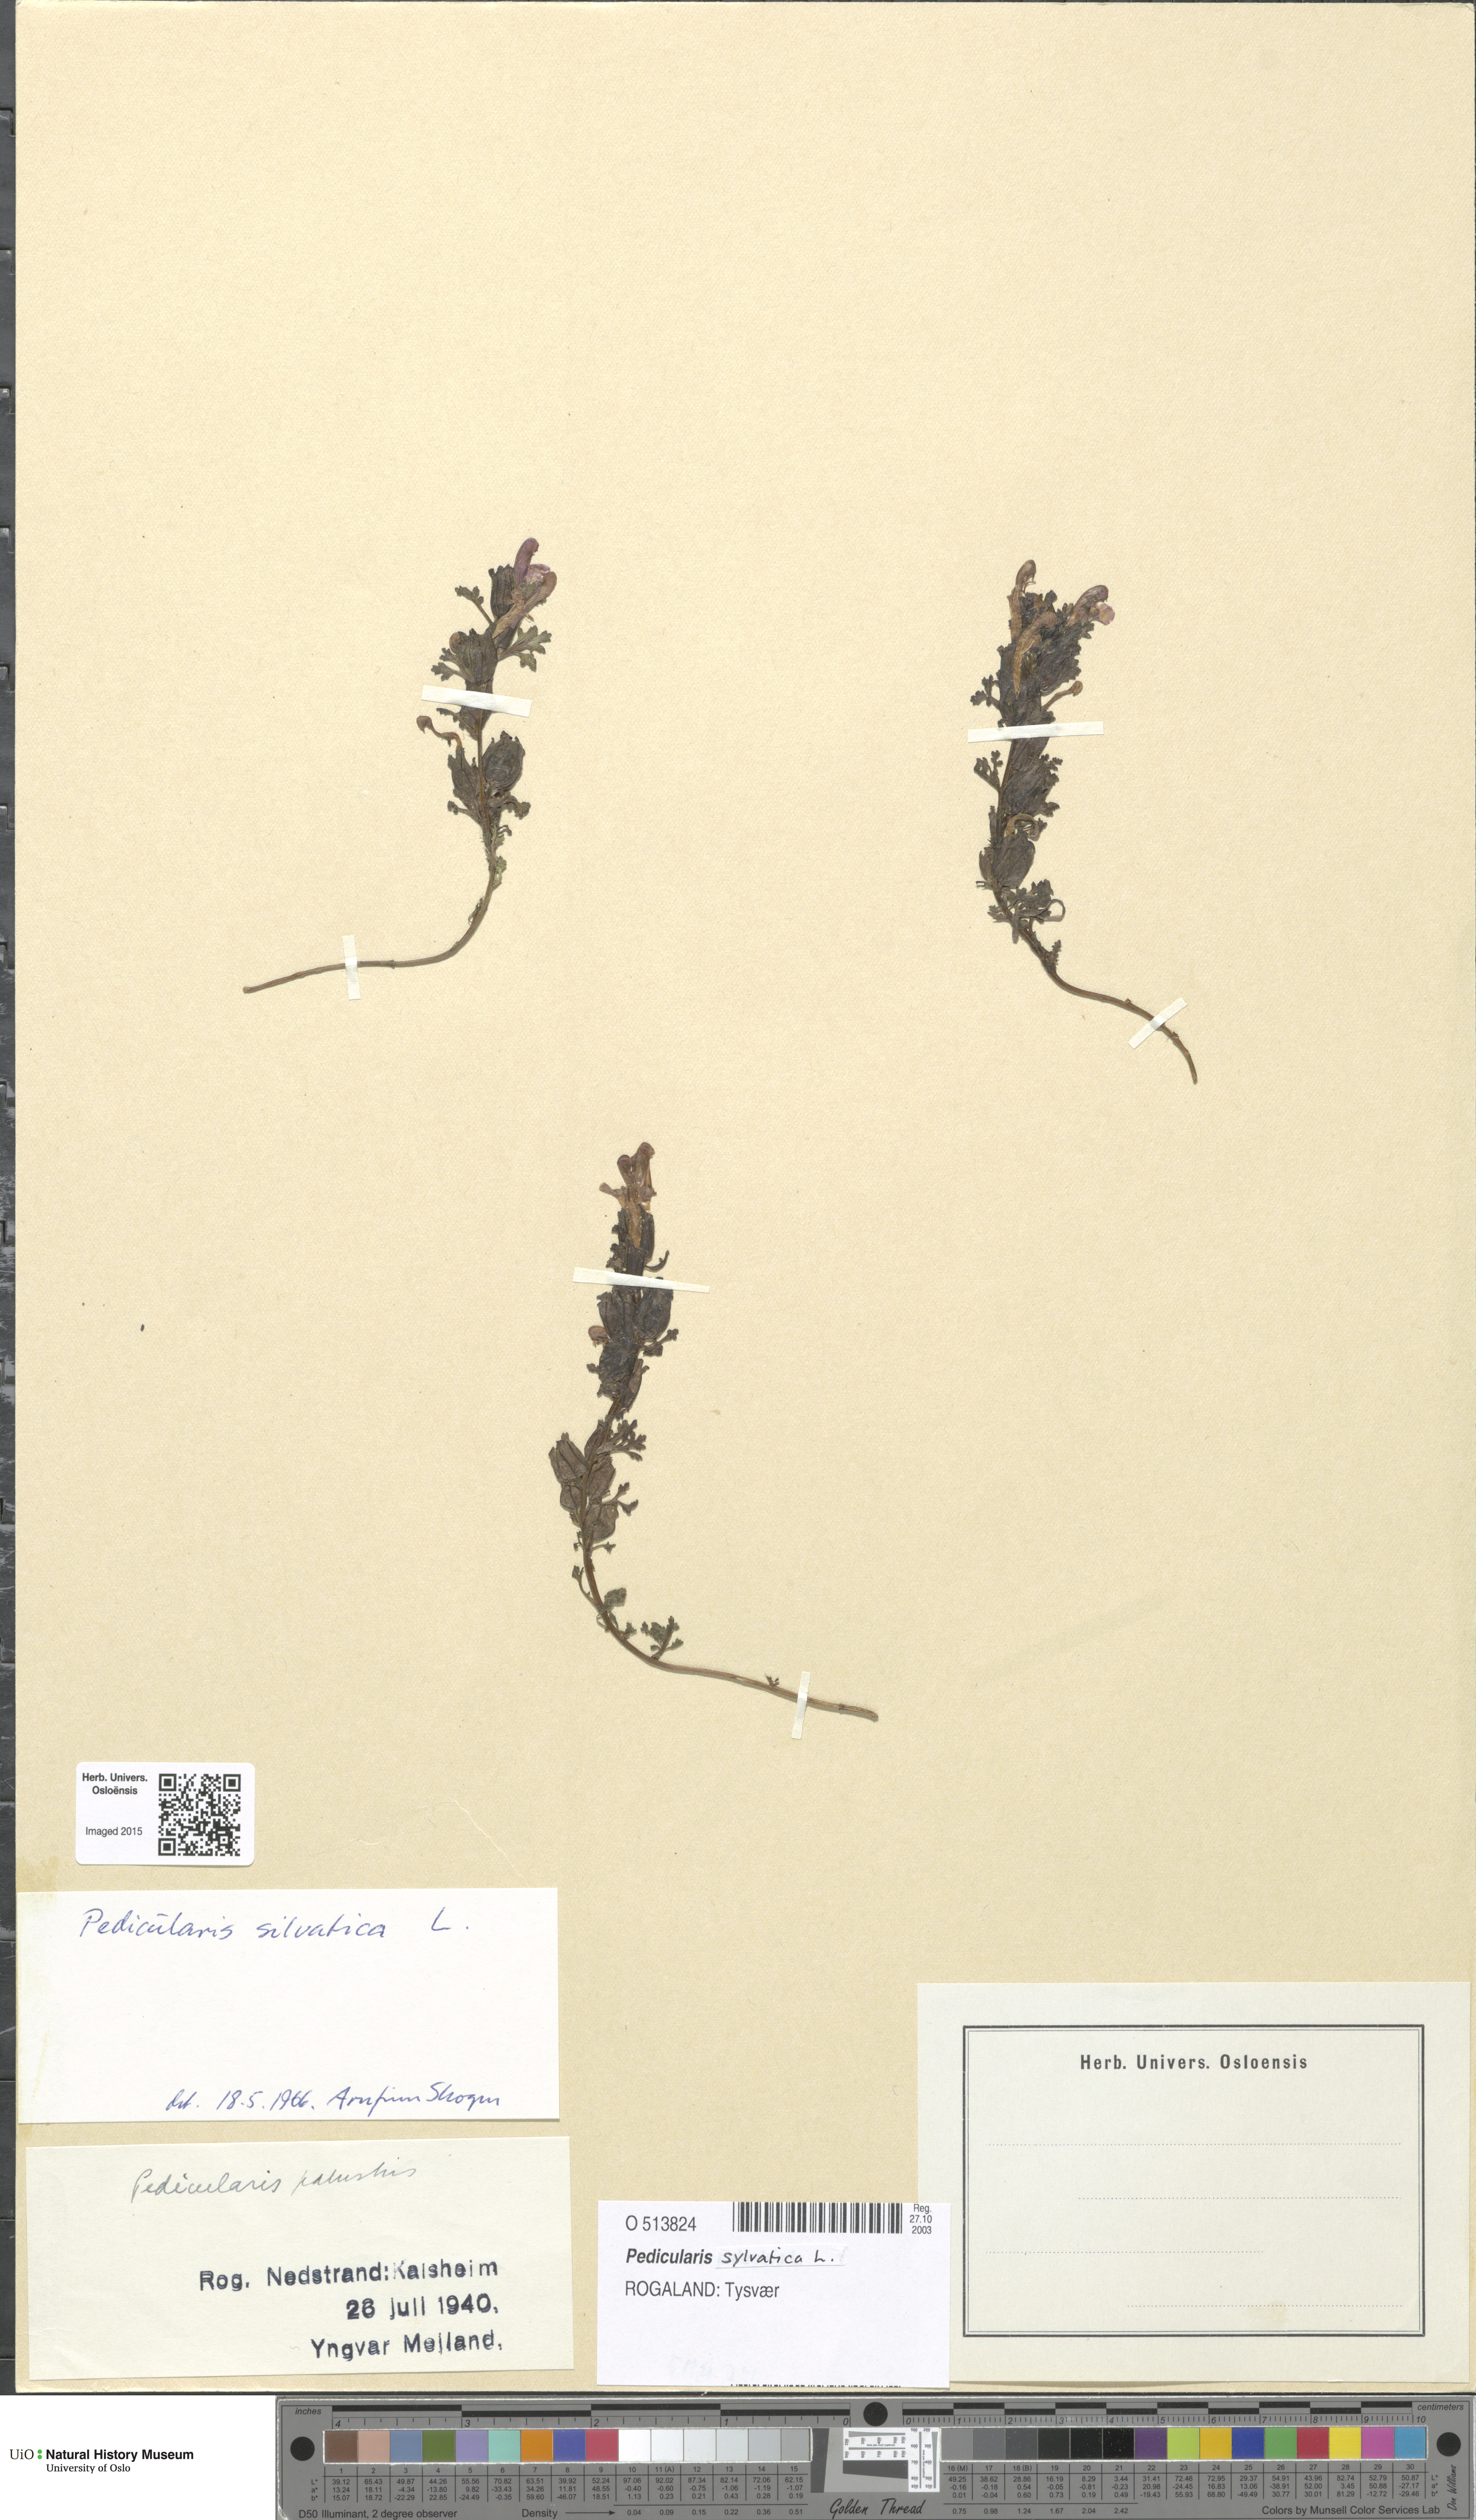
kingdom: Plantae
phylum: Tracheophyta
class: Magnoliopsida
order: Lamiales
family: Orobanchaceae
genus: Pedicularis
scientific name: Pedicularis sylvatica
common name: Lousewort
